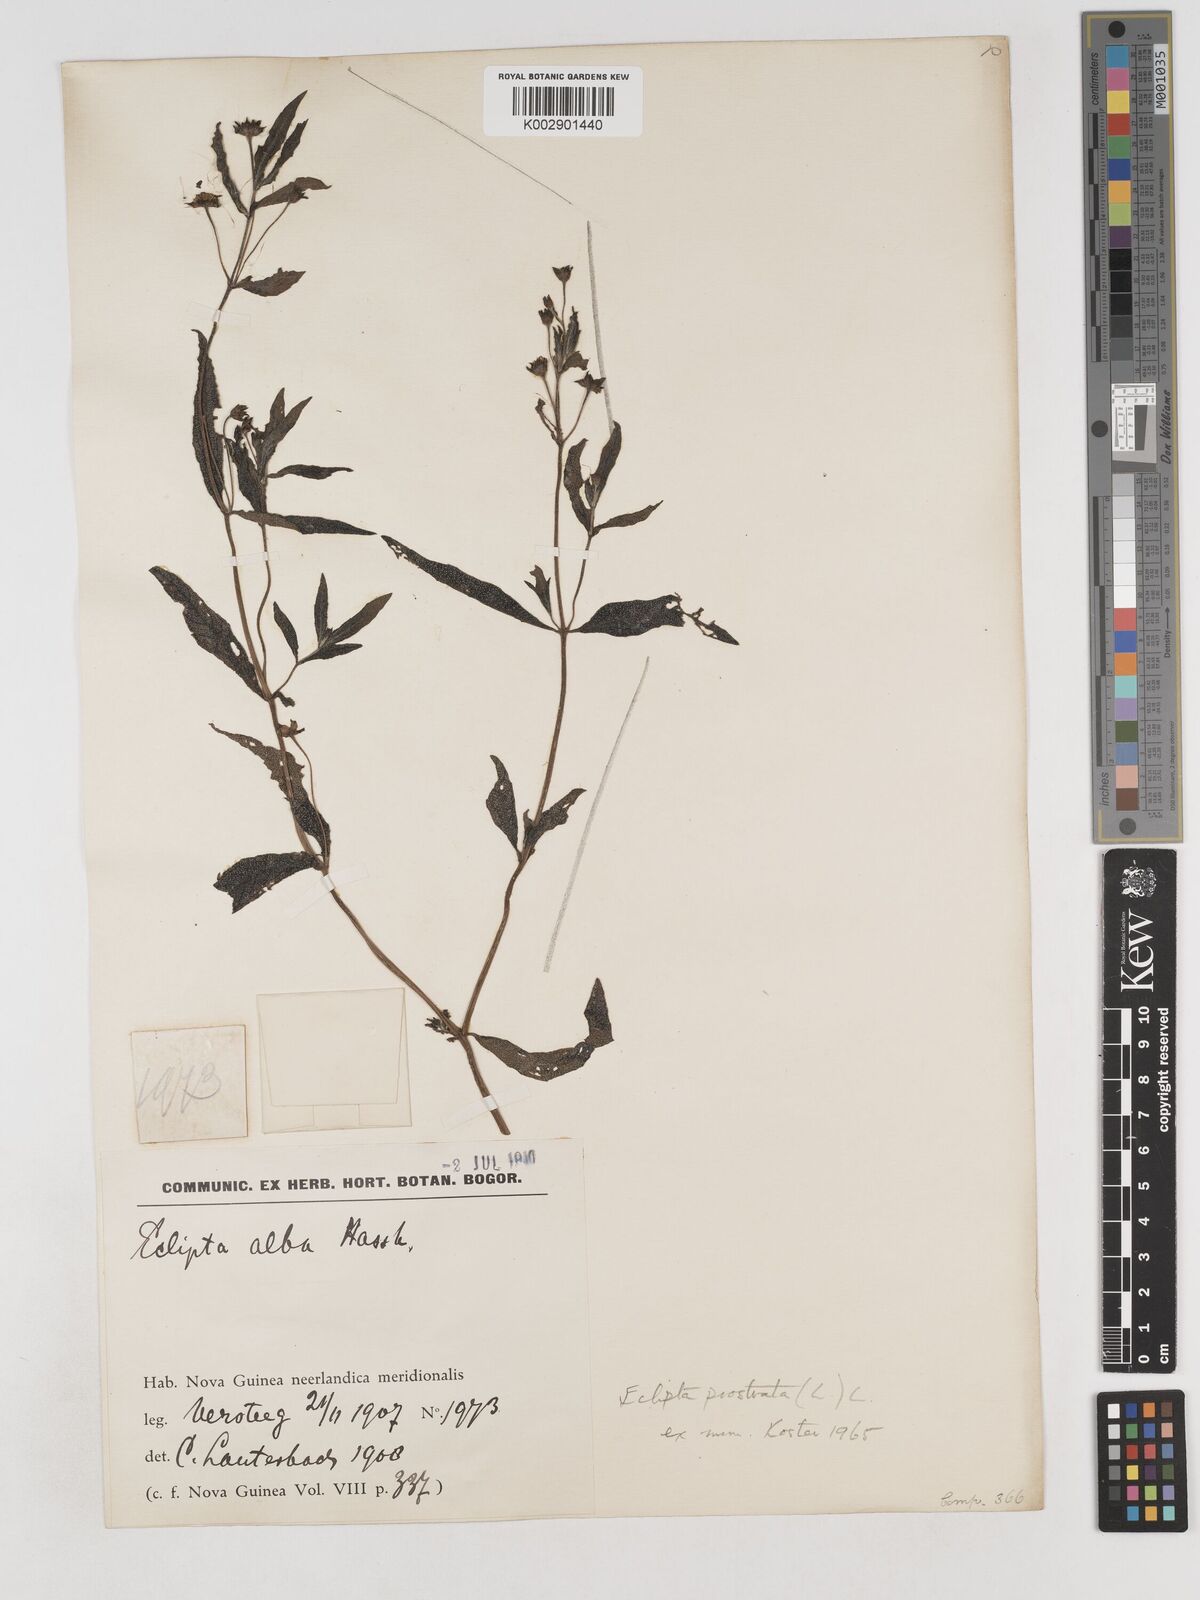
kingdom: Plantae
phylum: Tracheophyta
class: Magnoliopsida
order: Asterales
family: Asteraceae
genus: Eclipta
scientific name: Eclipta prostrata
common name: False daisy
